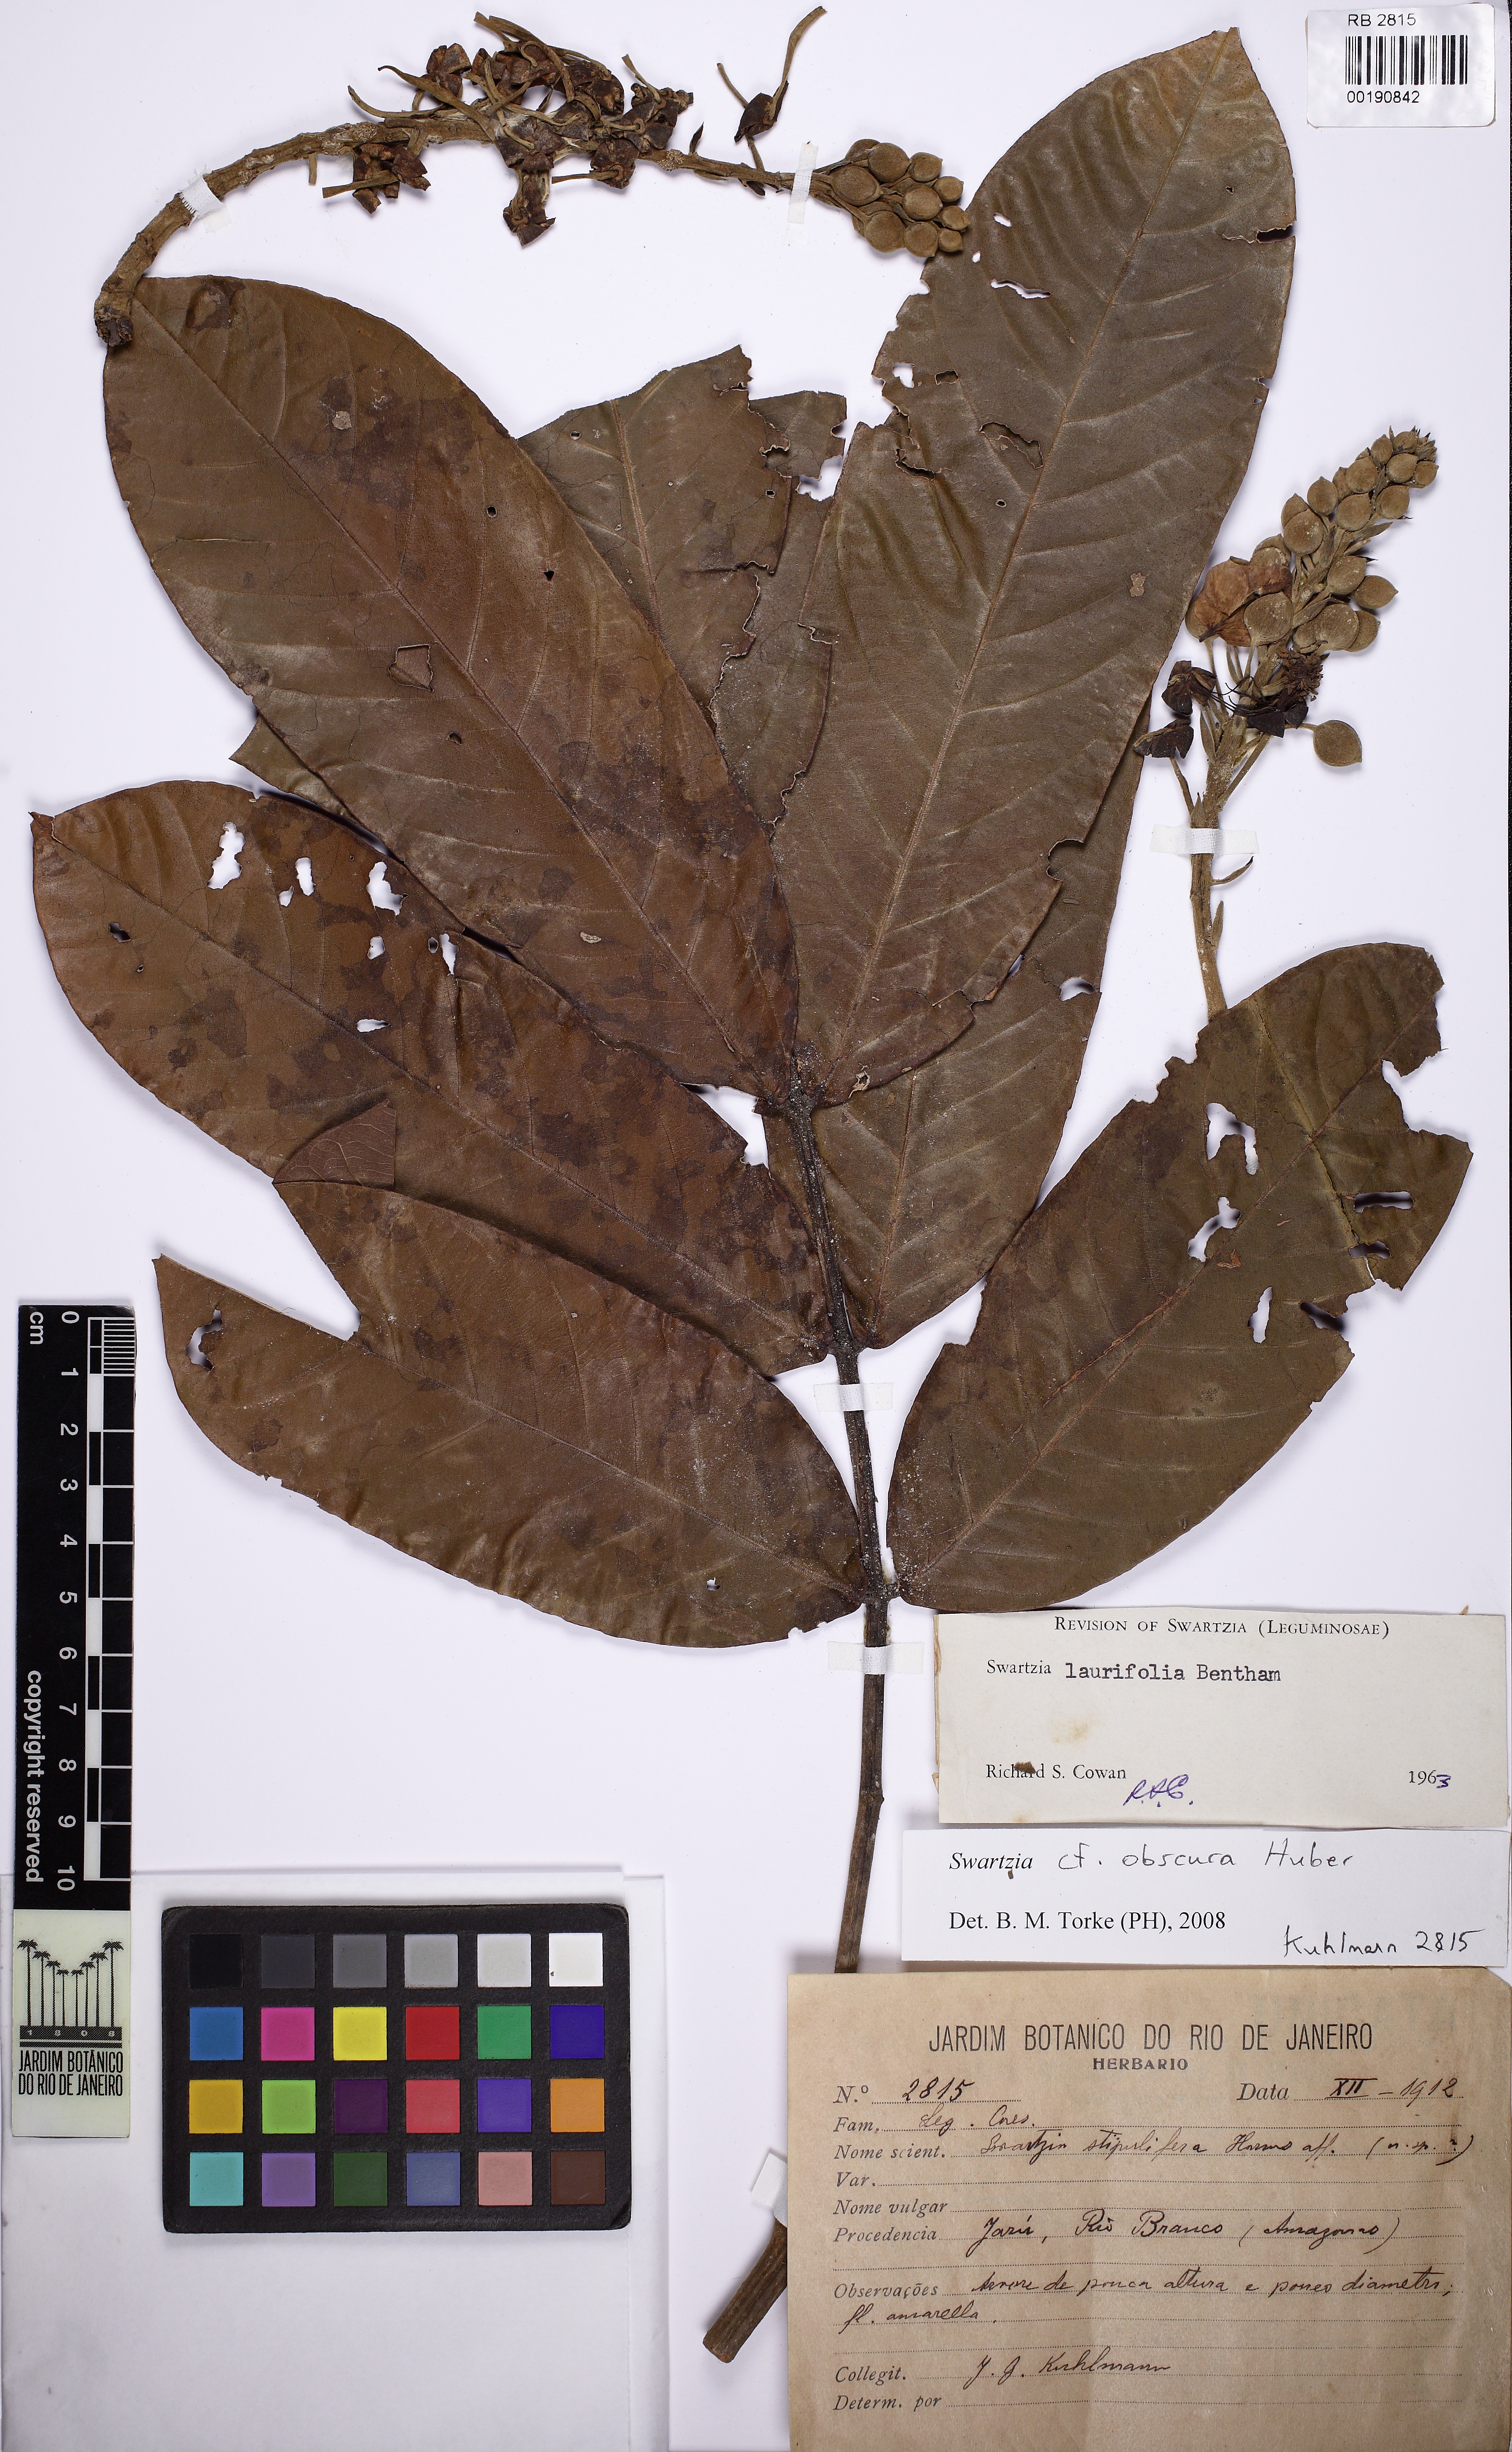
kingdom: Plantae
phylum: Tracheophyta
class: Magnoliopsida
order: Fabales
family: Fabaceae
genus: Swartzia
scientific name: Swartzia obscura
